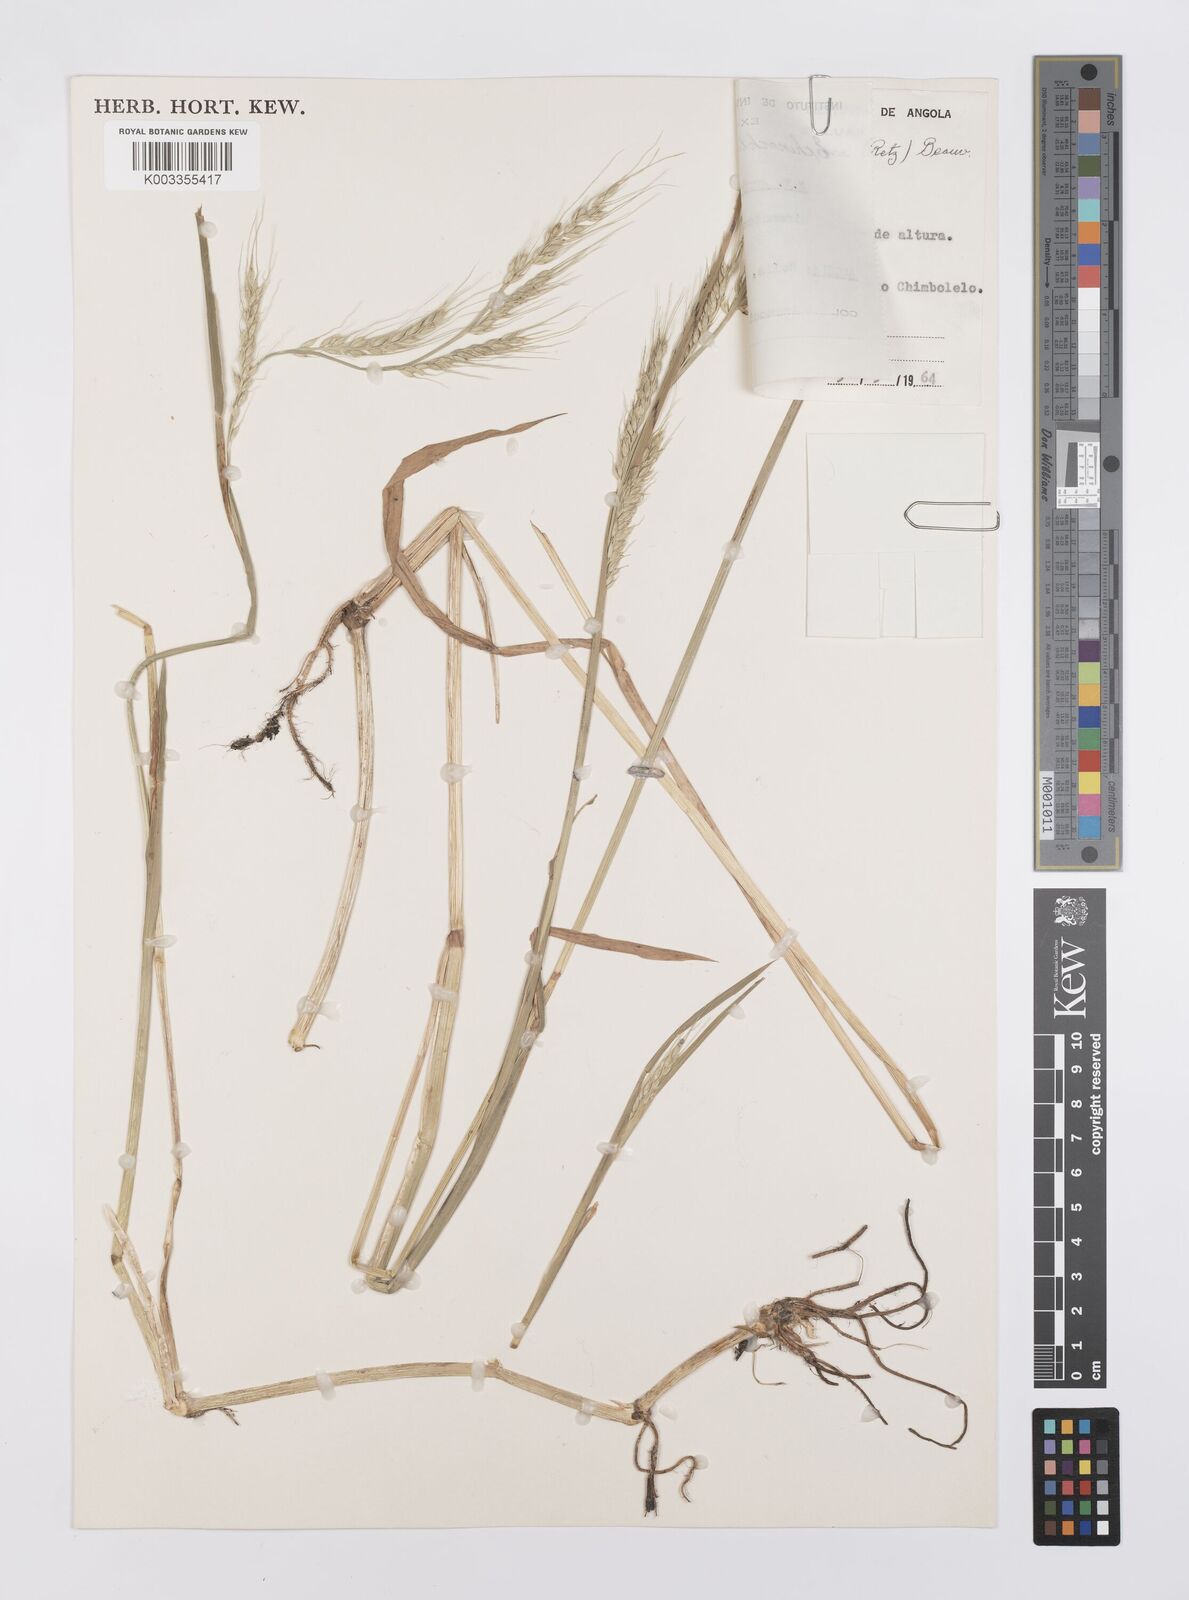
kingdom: Plantae
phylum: Tracheophyta
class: Liliopsida
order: Poales
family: Poaceae
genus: Echinochloa
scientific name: Echinochloa stagnina
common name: Burgu grass
